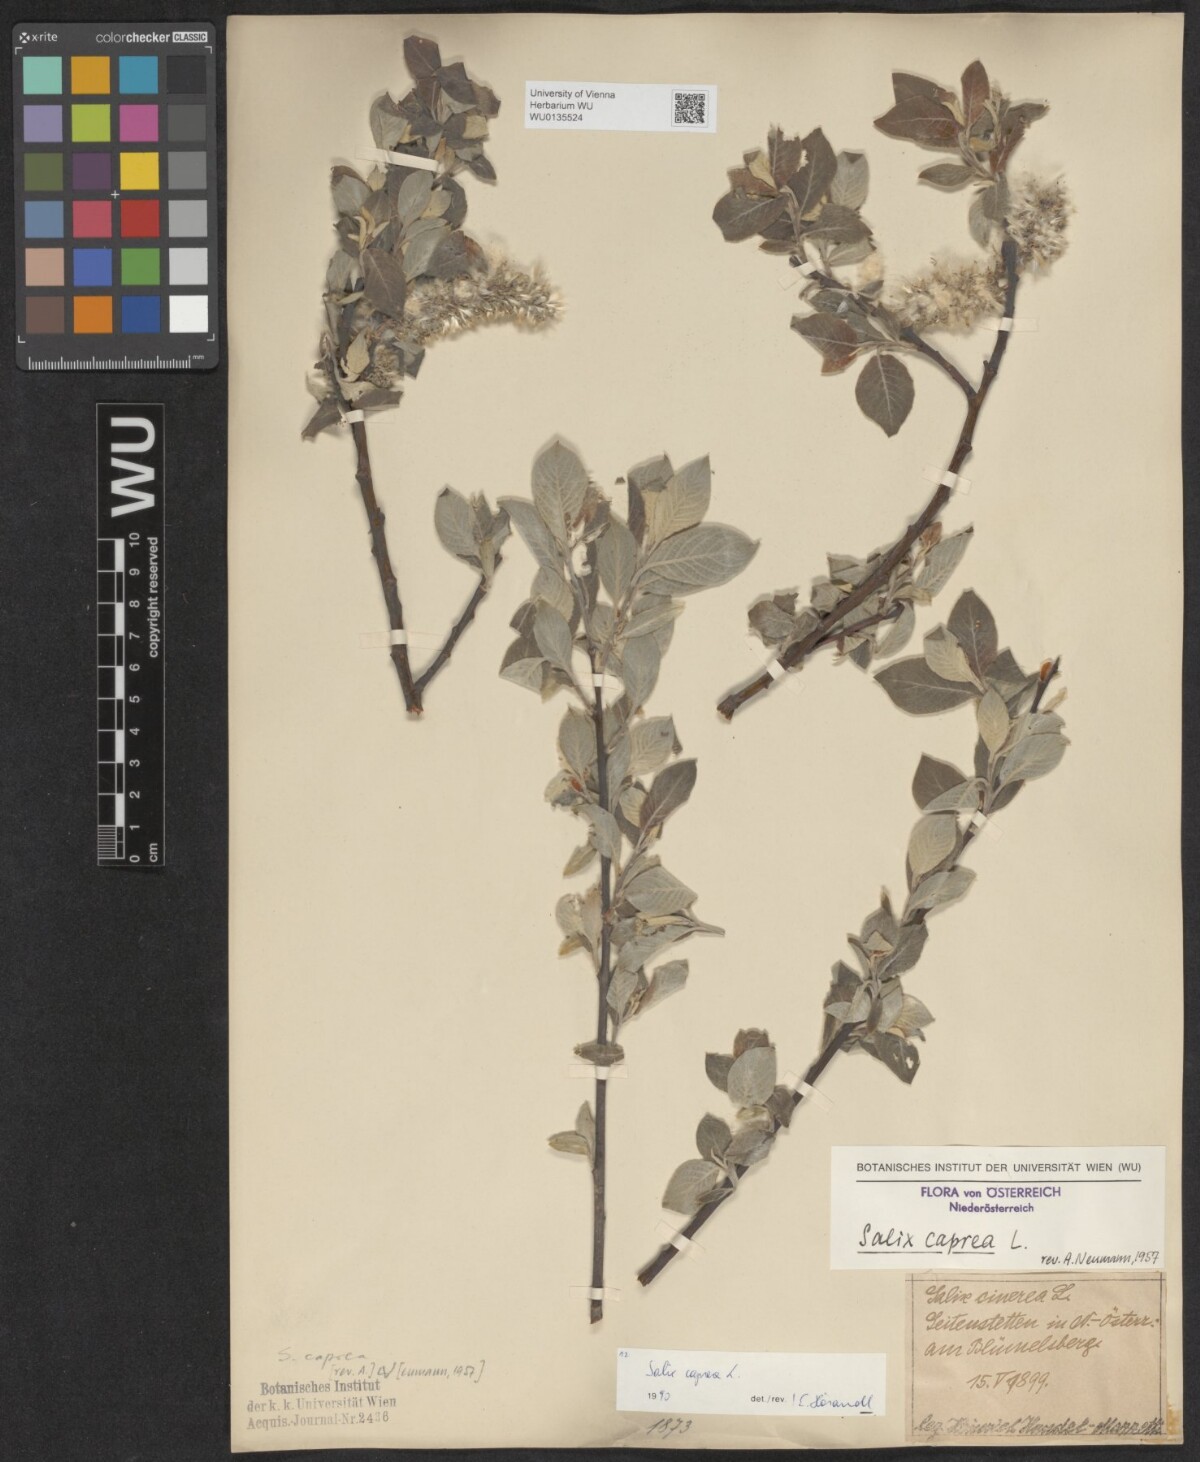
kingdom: Plantae
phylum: Tracheophyta
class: Magnoliopsida
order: Malpighiales
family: Salicaceae
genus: Salix
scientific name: Salix caprea
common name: Goat willow
